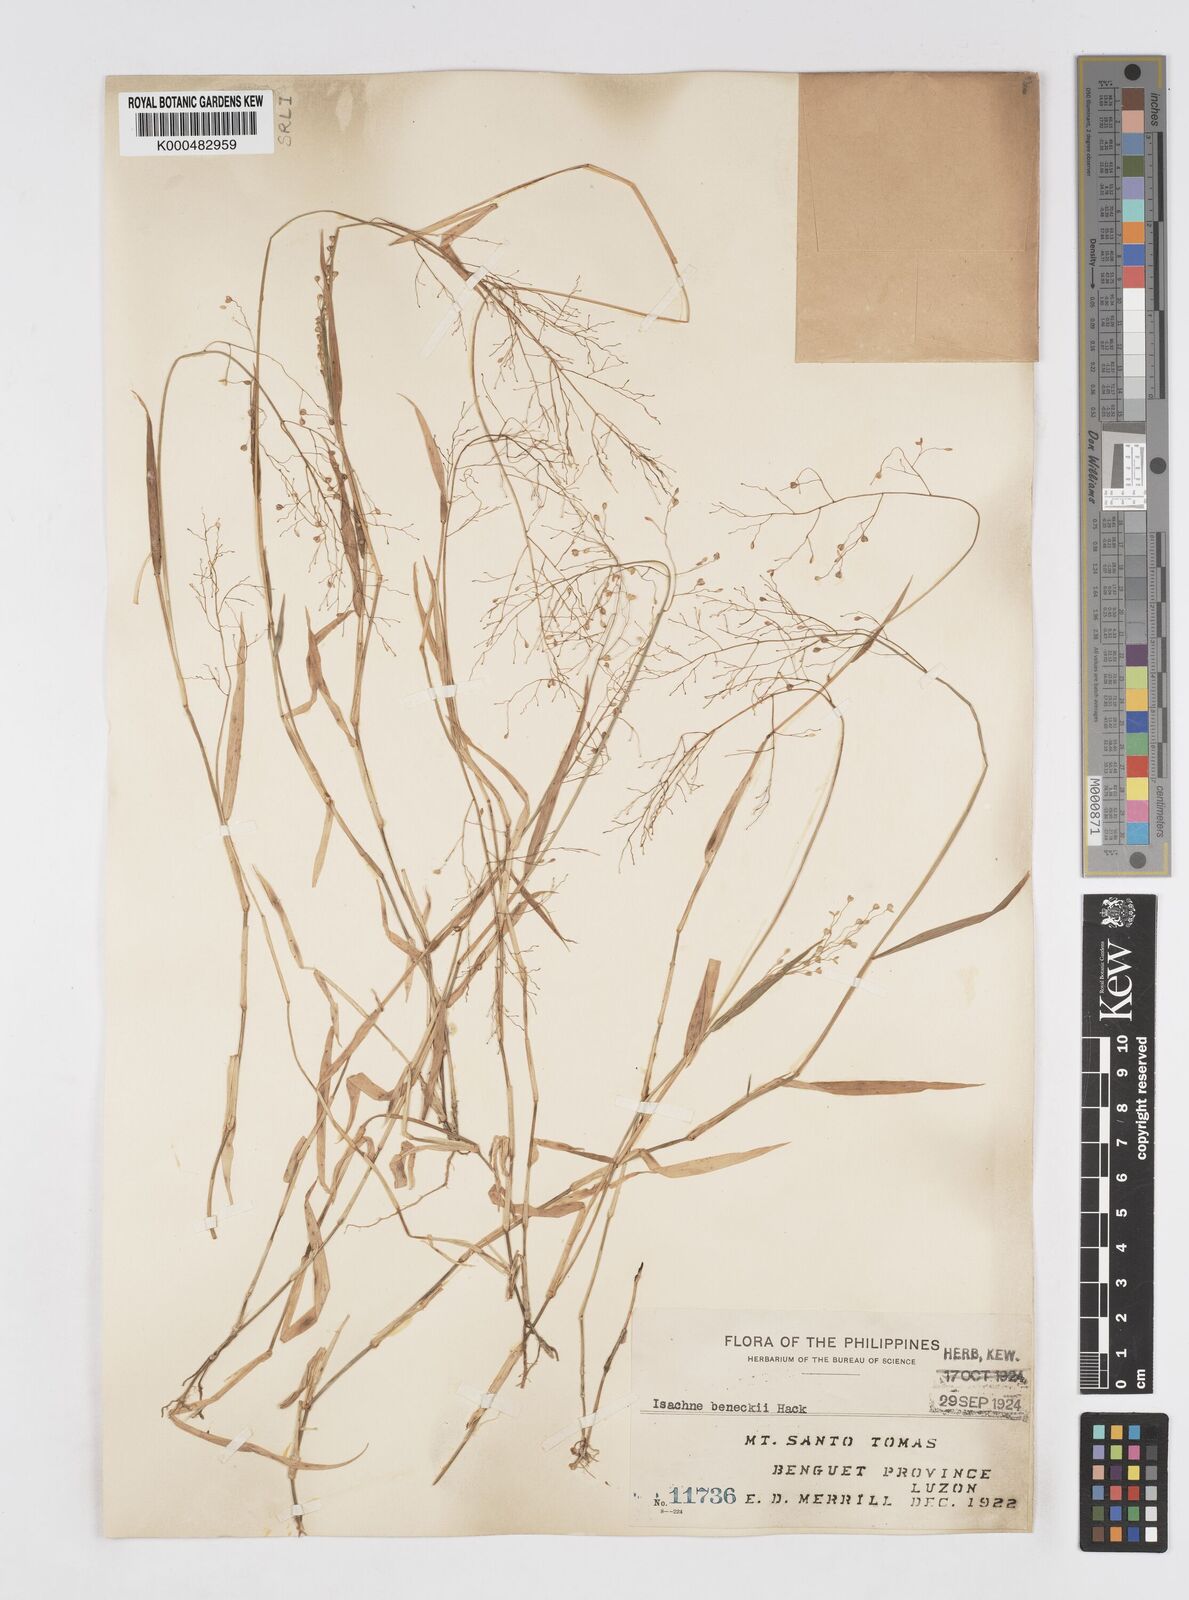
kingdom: Plantae
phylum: Tracheophyta
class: Liliopsida
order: Poales
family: Poaceae
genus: Isachne
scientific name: Isachne clarkei
